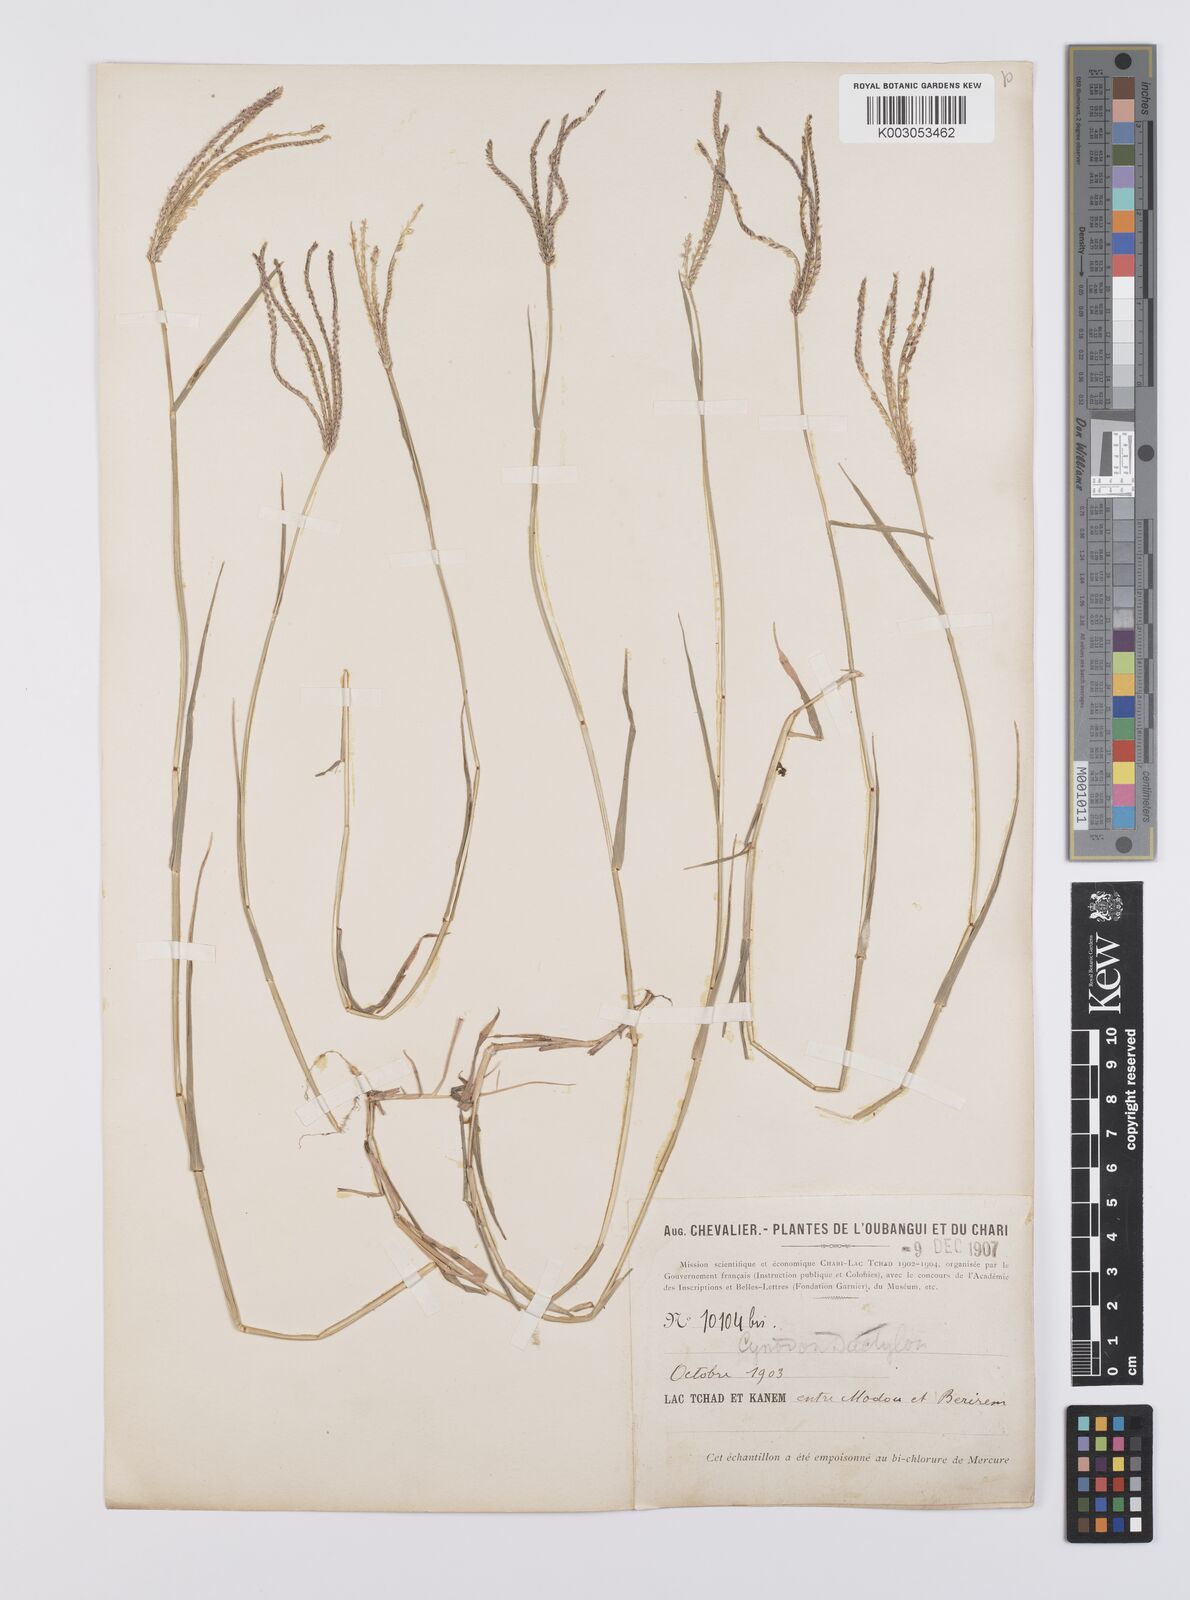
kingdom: Plantae
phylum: Tracheophyta
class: Liliopsida
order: Poales
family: Poaceae
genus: Cynodon
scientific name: Cynodon dactylon
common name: Bermuda grass
